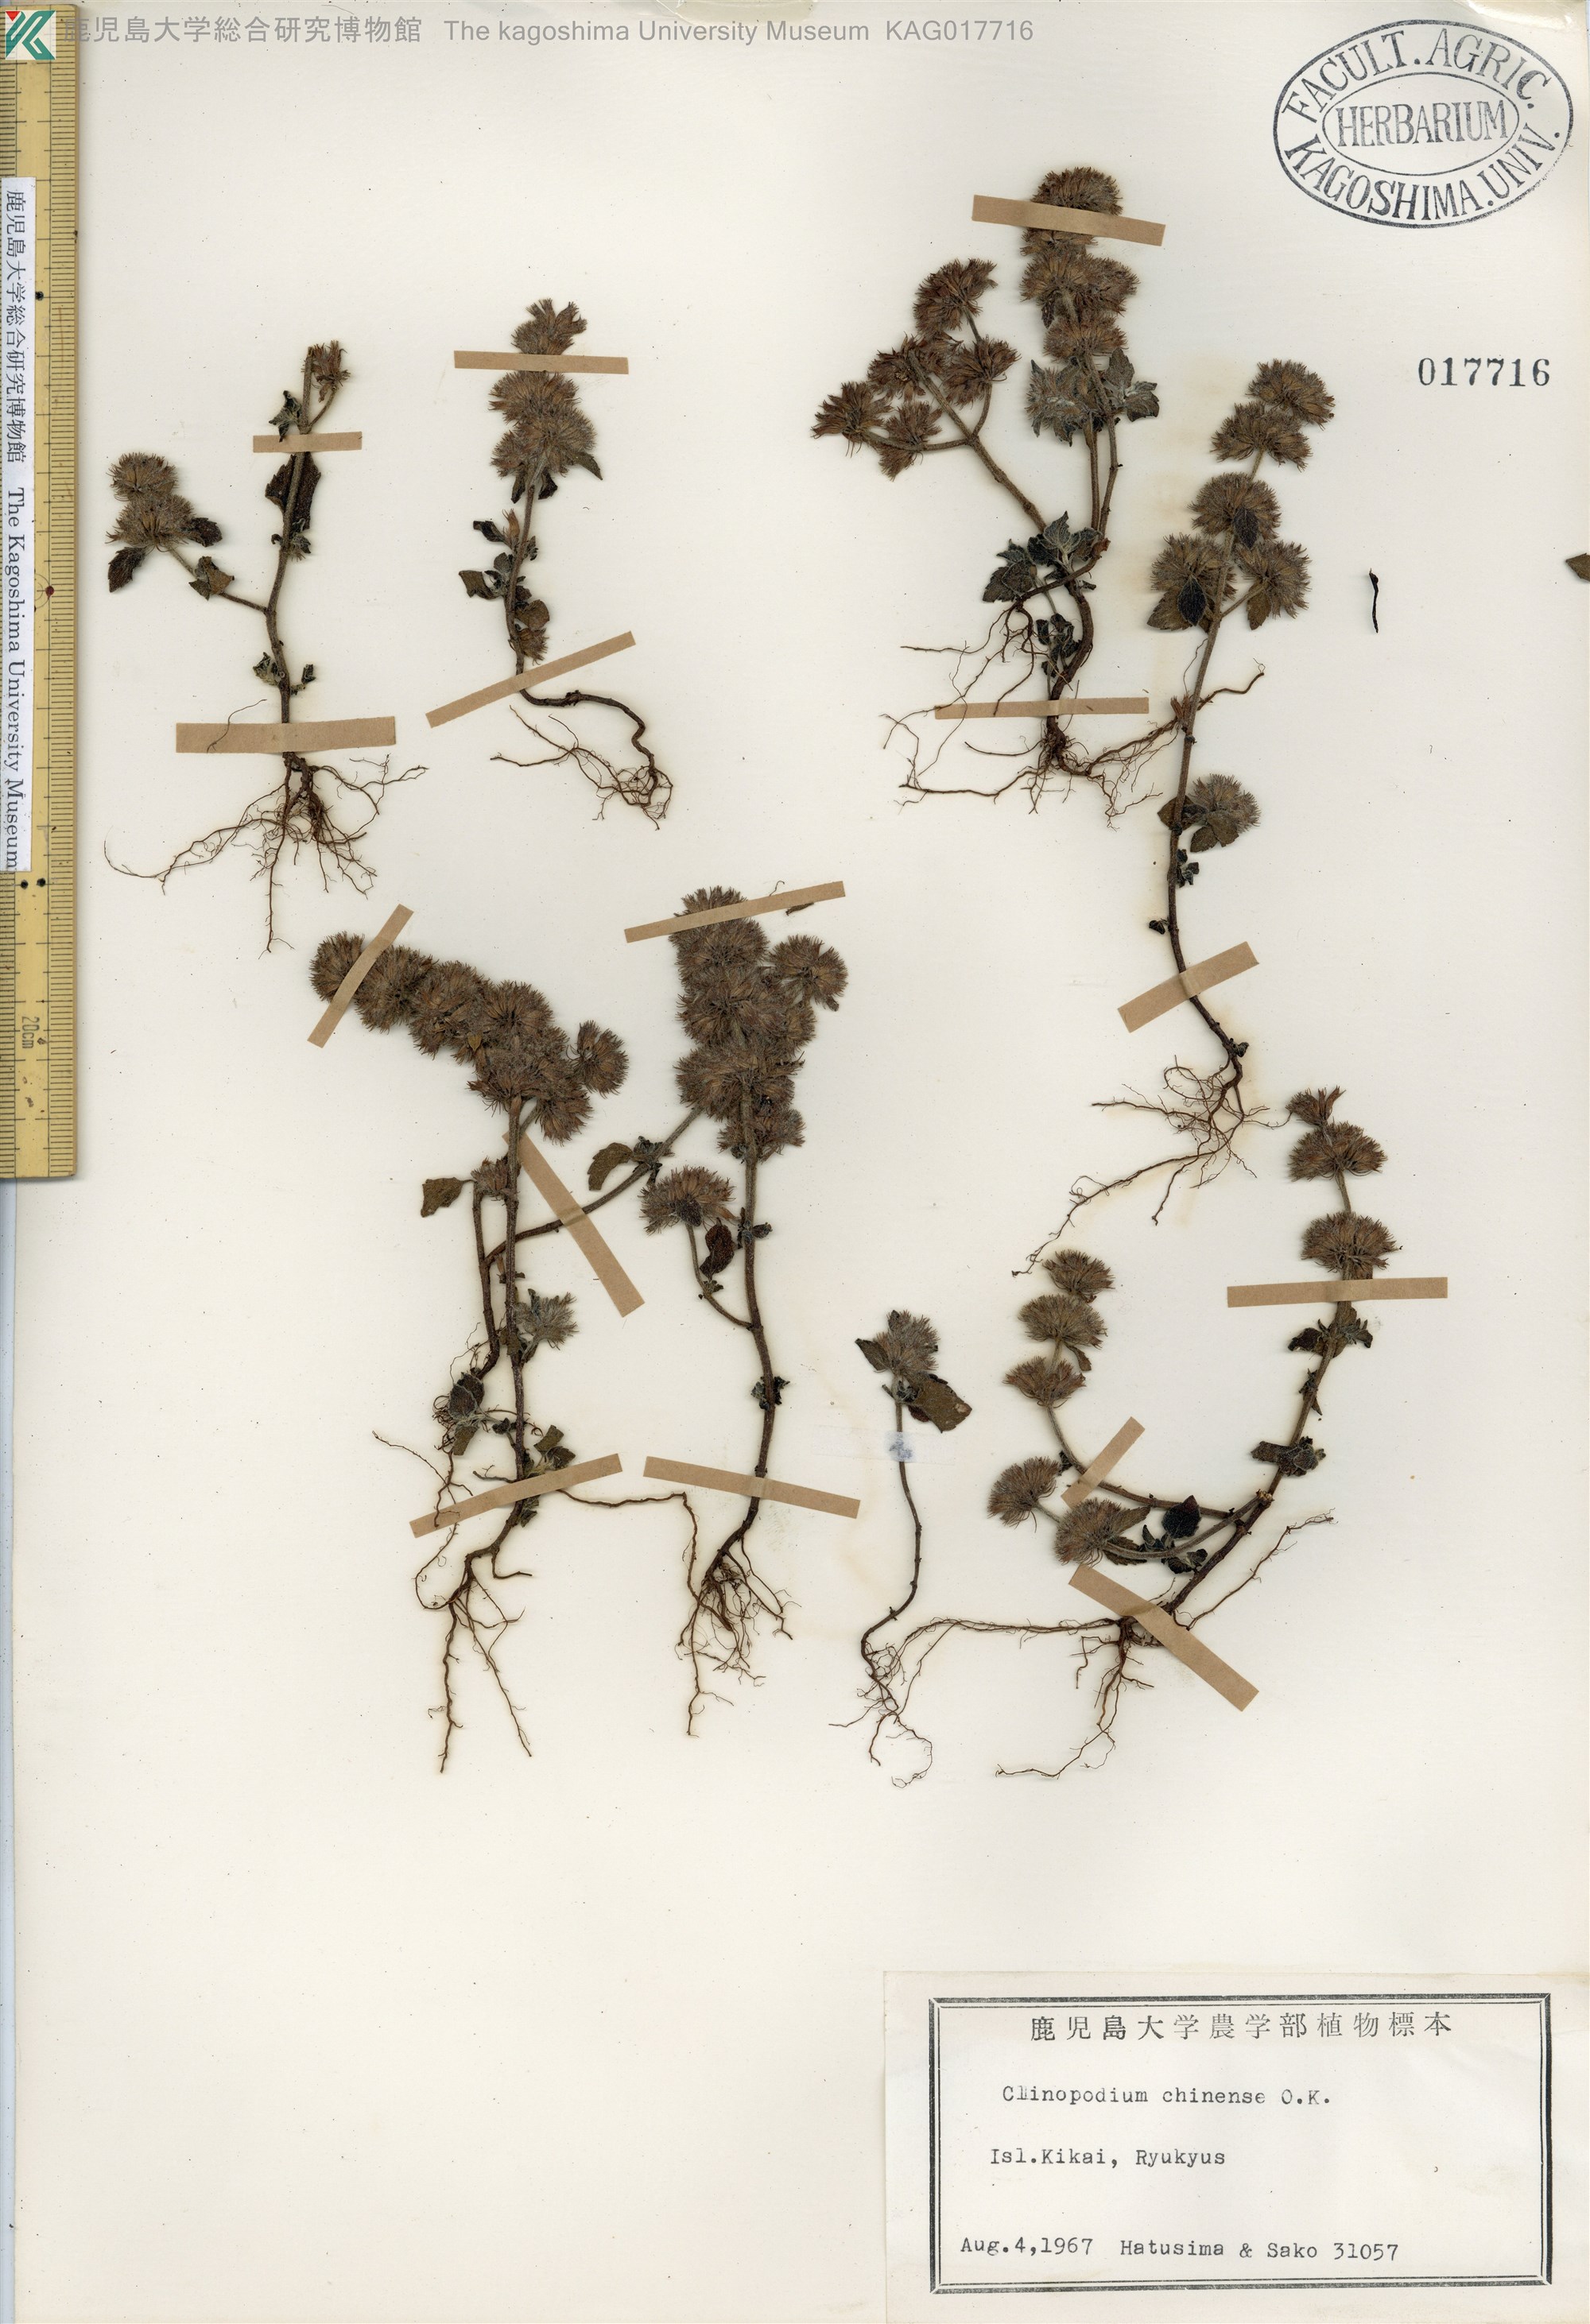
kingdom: Plantae
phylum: Tracheophyta
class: Magnoliopsida
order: Lamiales
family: Lamiaceae
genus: Clinopodium
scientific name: Clinopodium chinense
